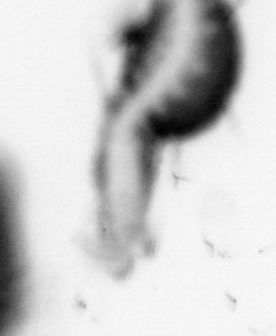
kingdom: Animalia
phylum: Chaetognatha
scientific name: Chaetognatha
